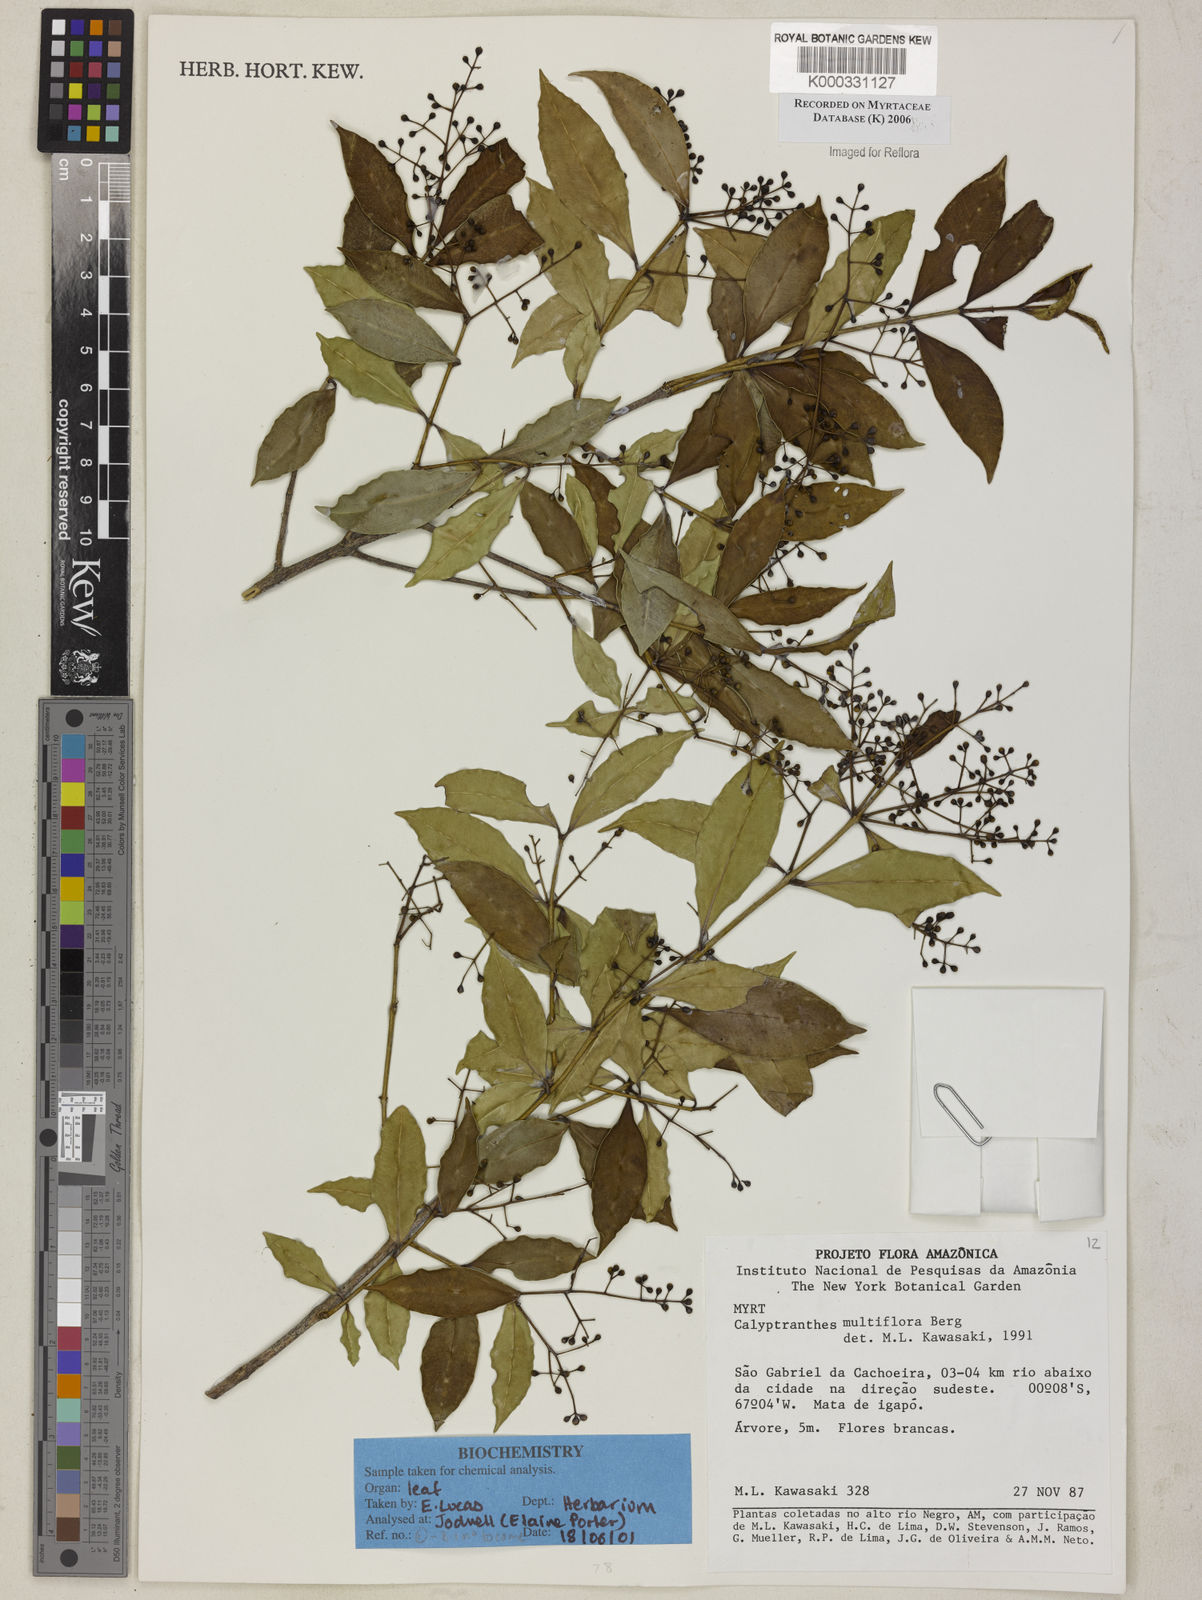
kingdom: Plantae
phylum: Tracheophyta
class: Magnoliopsida
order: Myrtales
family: Myrtaceae
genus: Myrcia
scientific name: Myrcia aulomyrcioides
